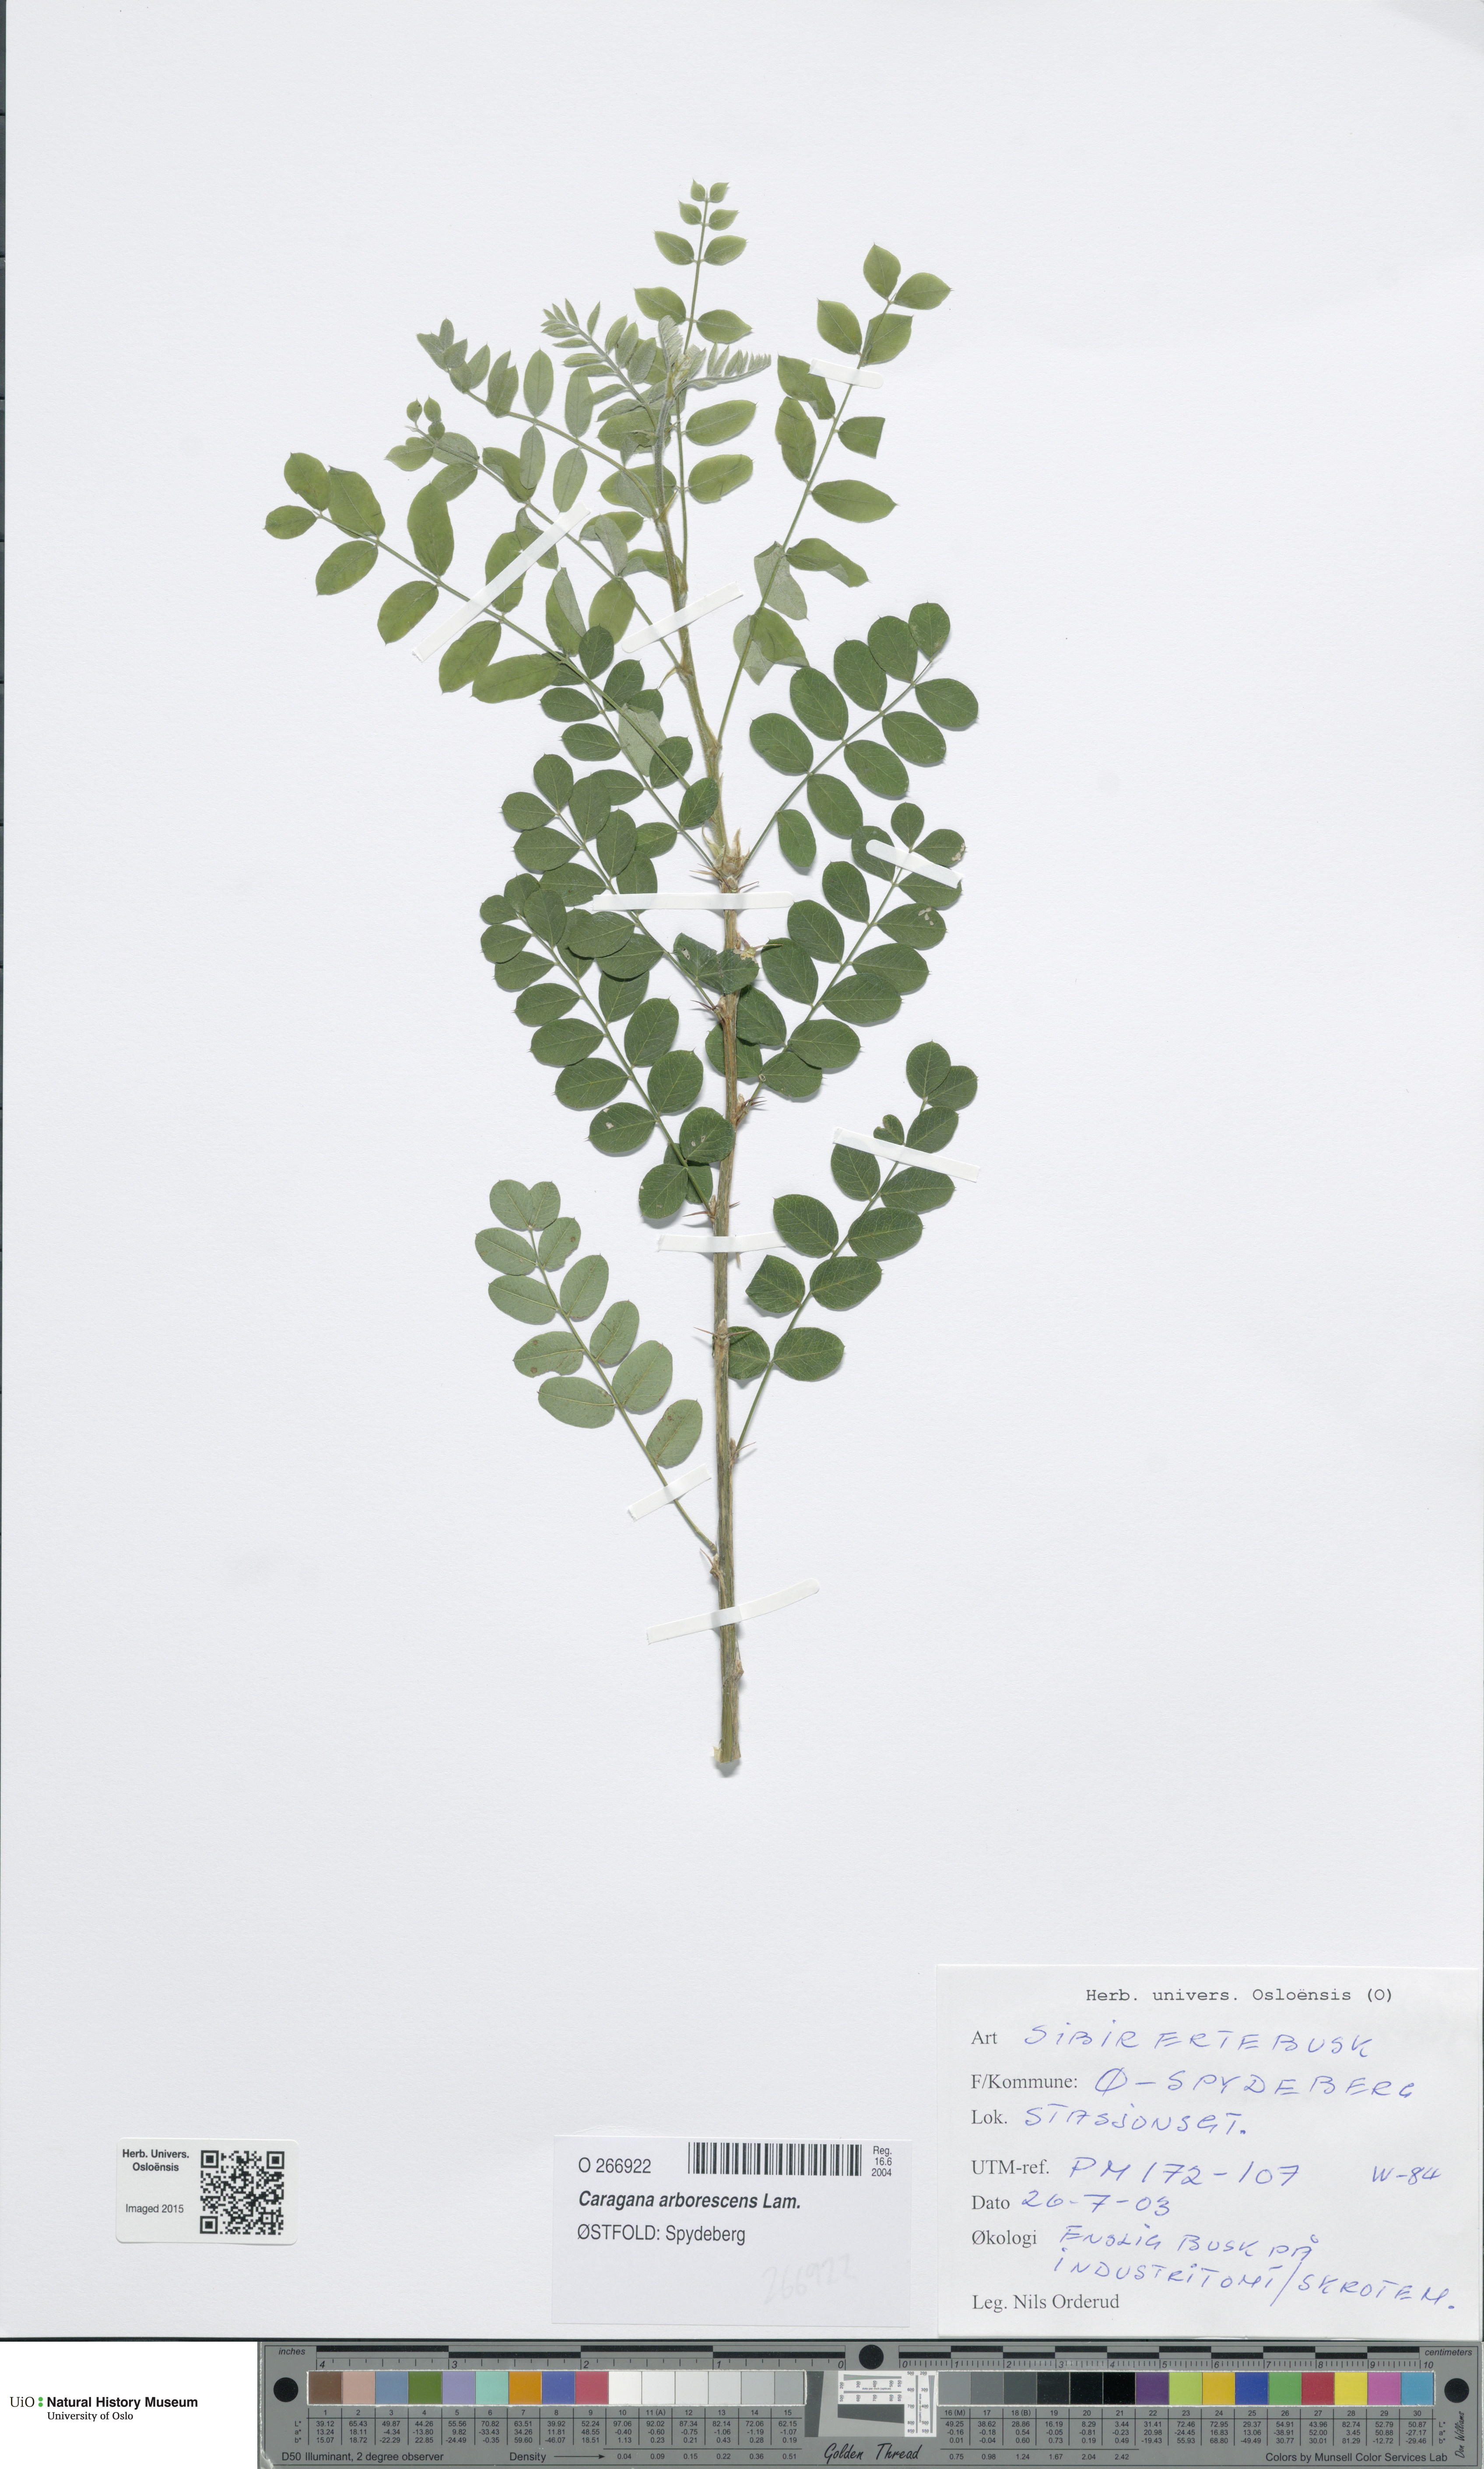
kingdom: Plantae
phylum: Tracheophyta
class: Magnoliopsida
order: Fabales
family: Fabaceae
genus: Caragana
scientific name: Caragana arborescens
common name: Siberian peashrub
